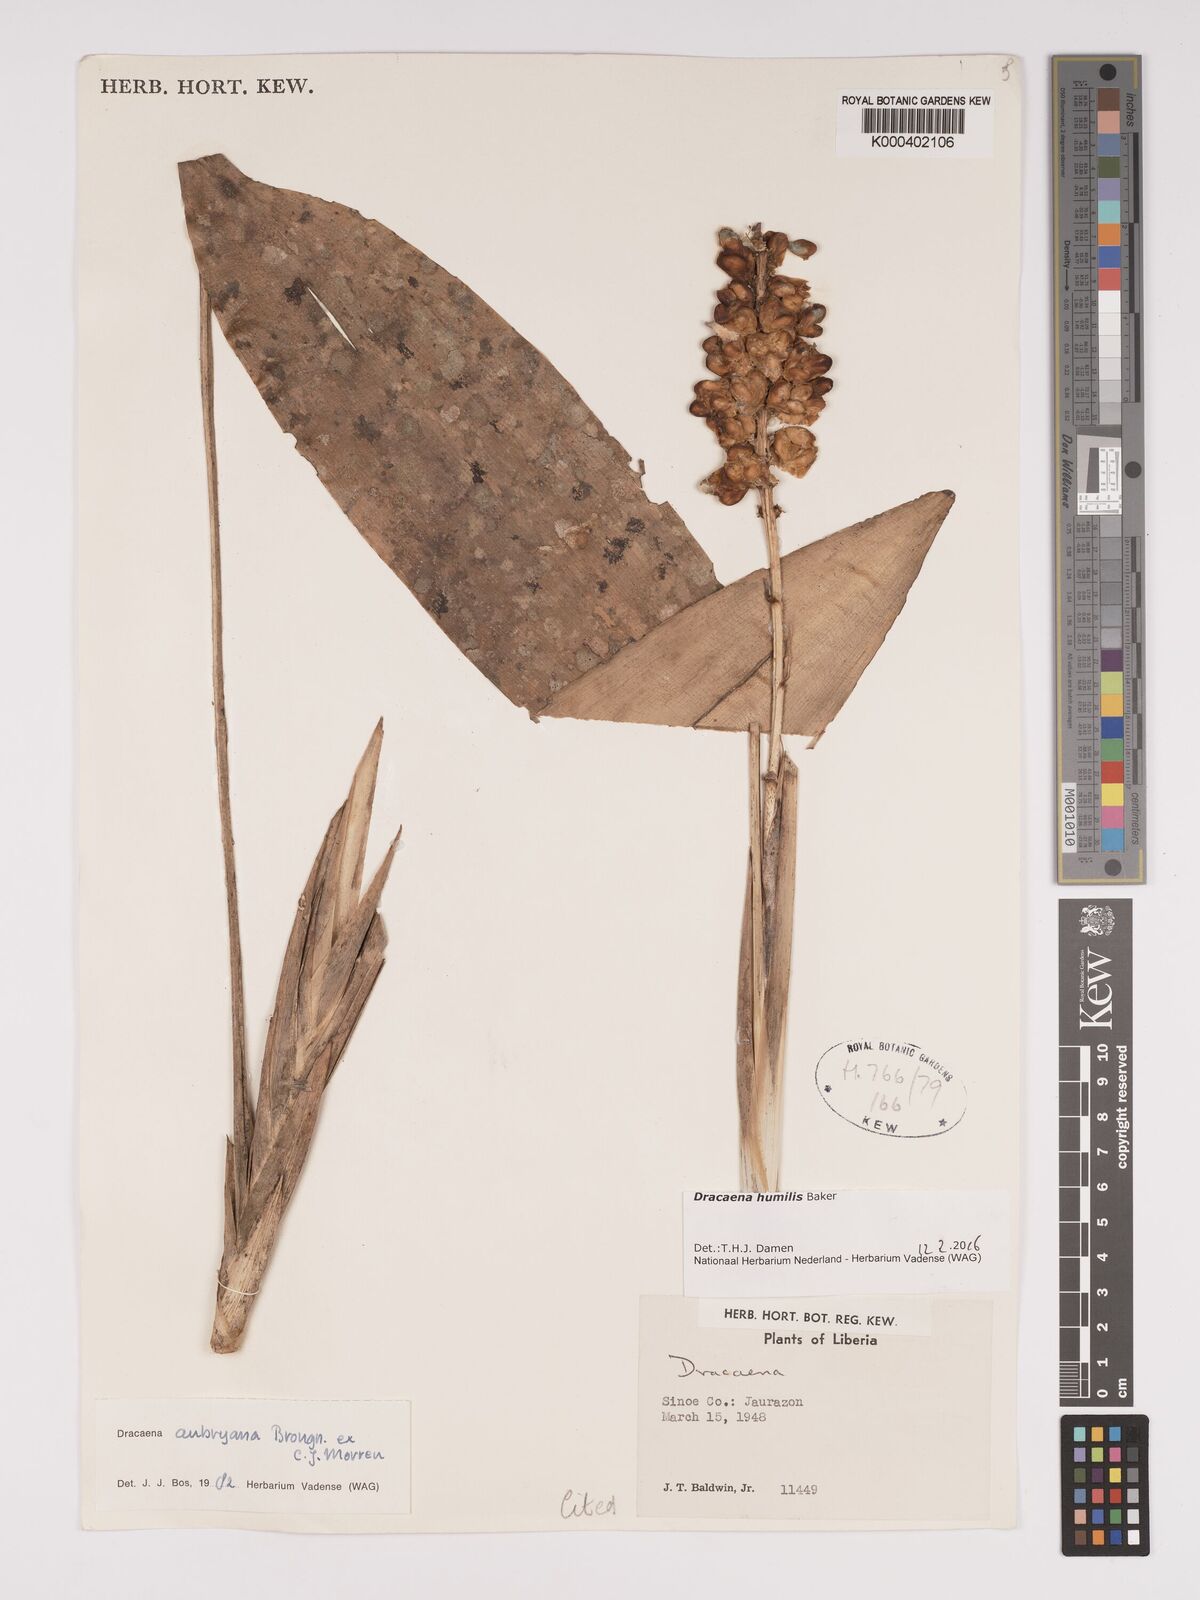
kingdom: Plantae
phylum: Tracheophyta
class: Liliopsida
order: Asparagales
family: Asparagaceae
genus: Dracaena
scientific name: Dracaena aubryana
